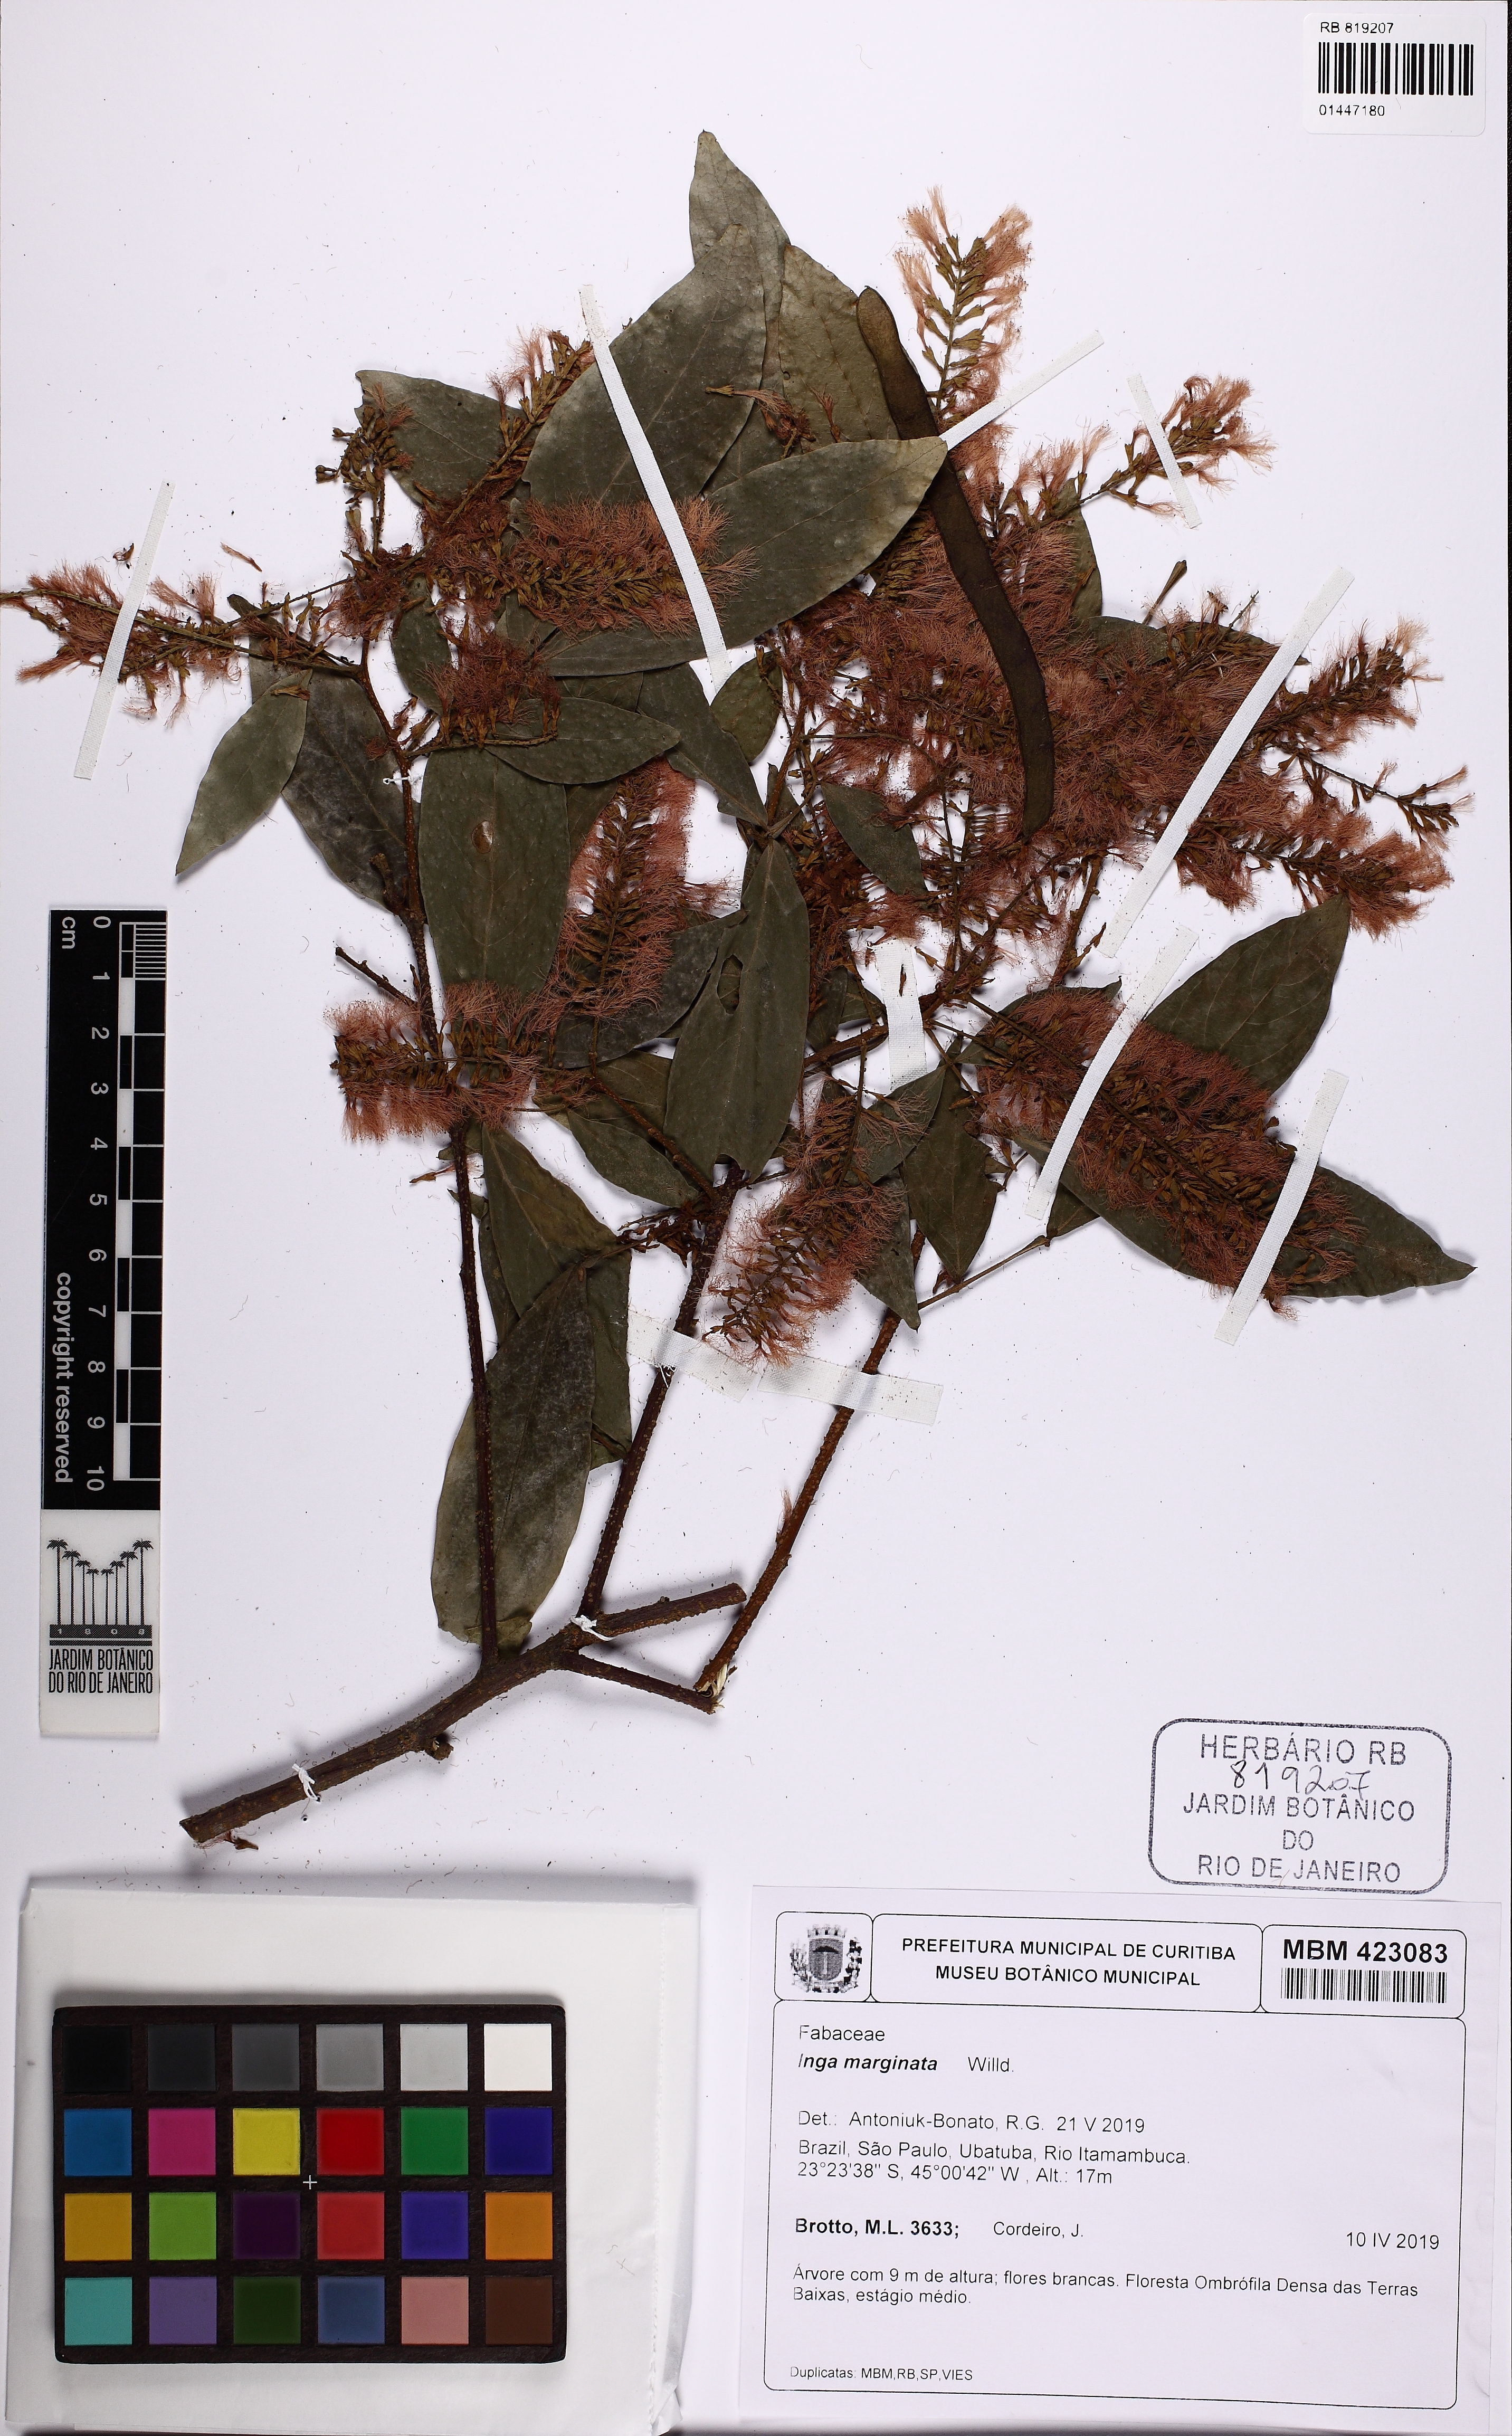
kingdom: Plantae
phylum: Tracheophyta
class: Magnoliopsida
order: Fabales
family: Fabaceae
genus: Inga
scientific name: Inga marginata
